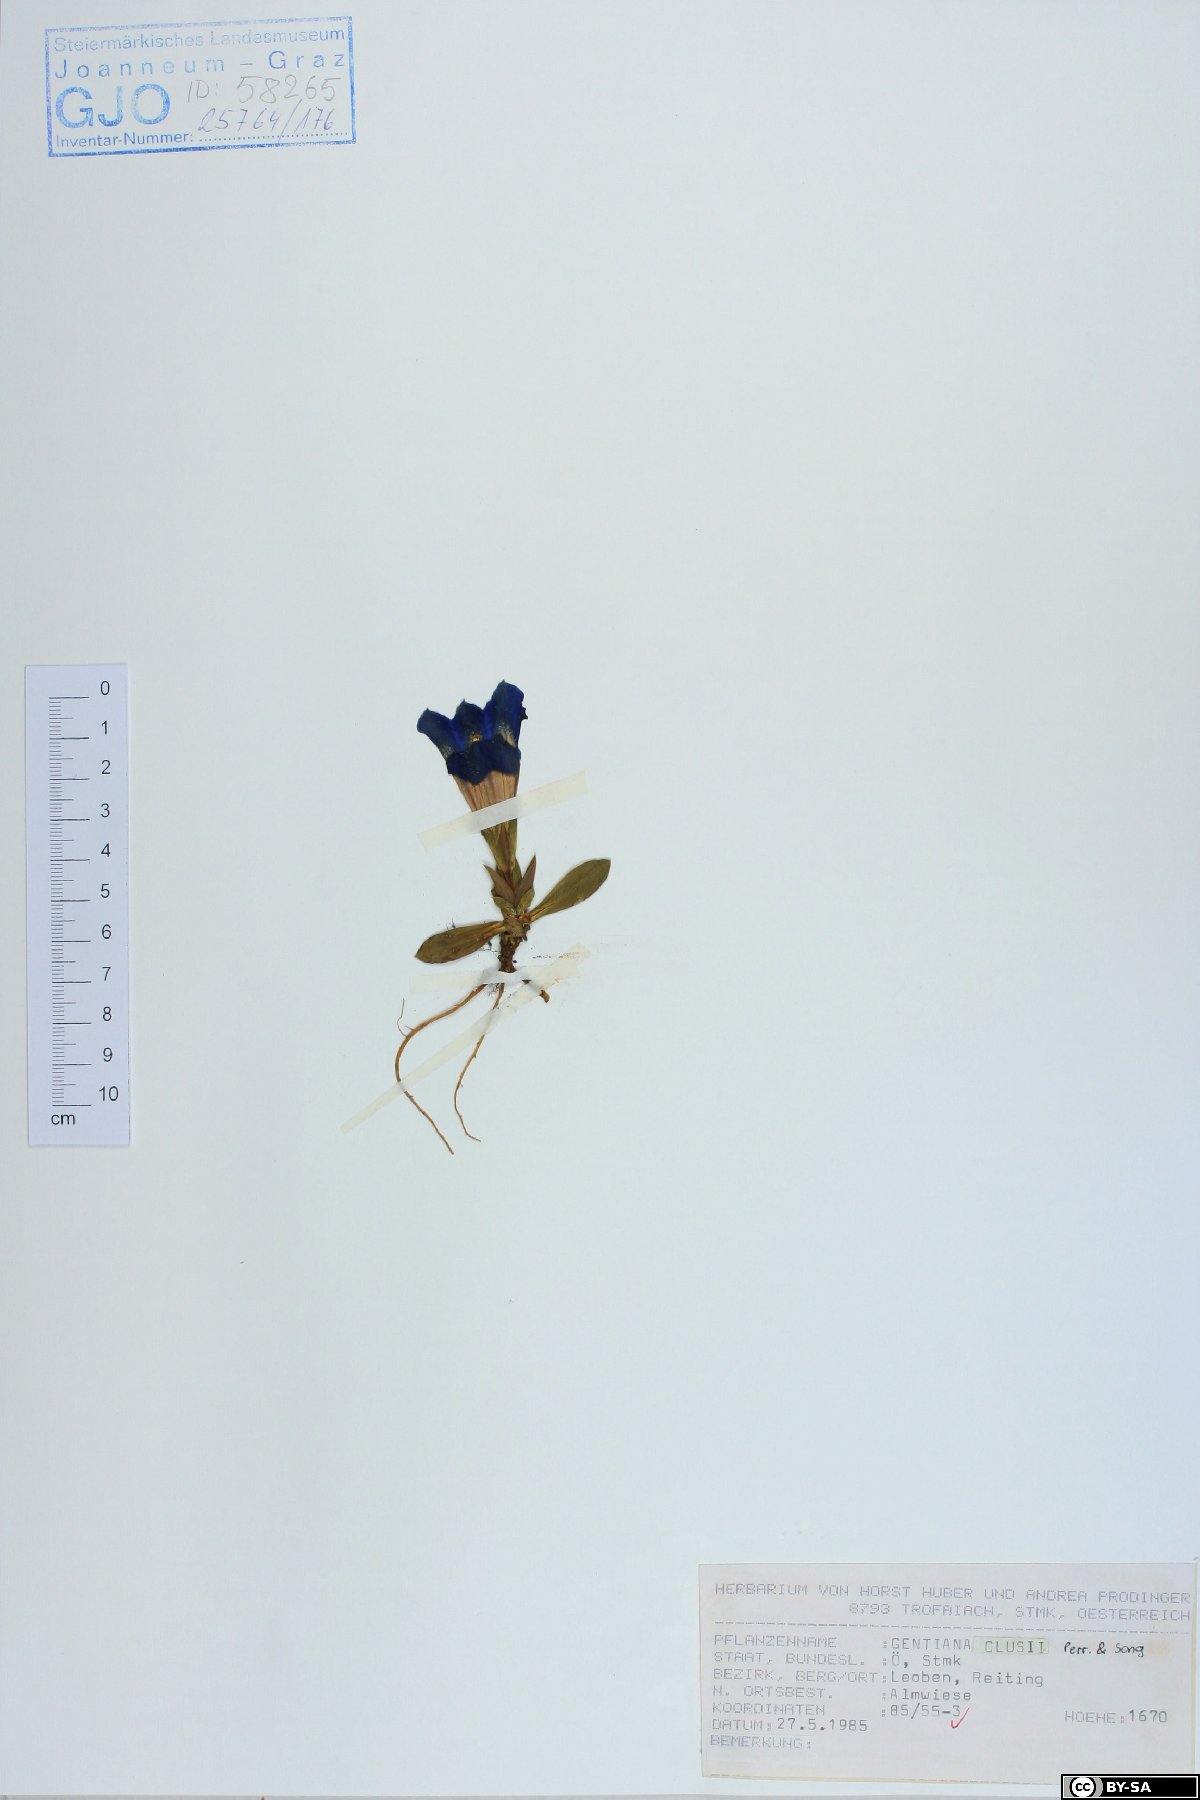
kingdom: Plantae
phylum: Tracheophyta
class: Magnoliopsida
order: Gentianales
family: Gentianaceae
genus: Gentiana
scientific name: Gentiana clusii
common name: Trumpet gentian
